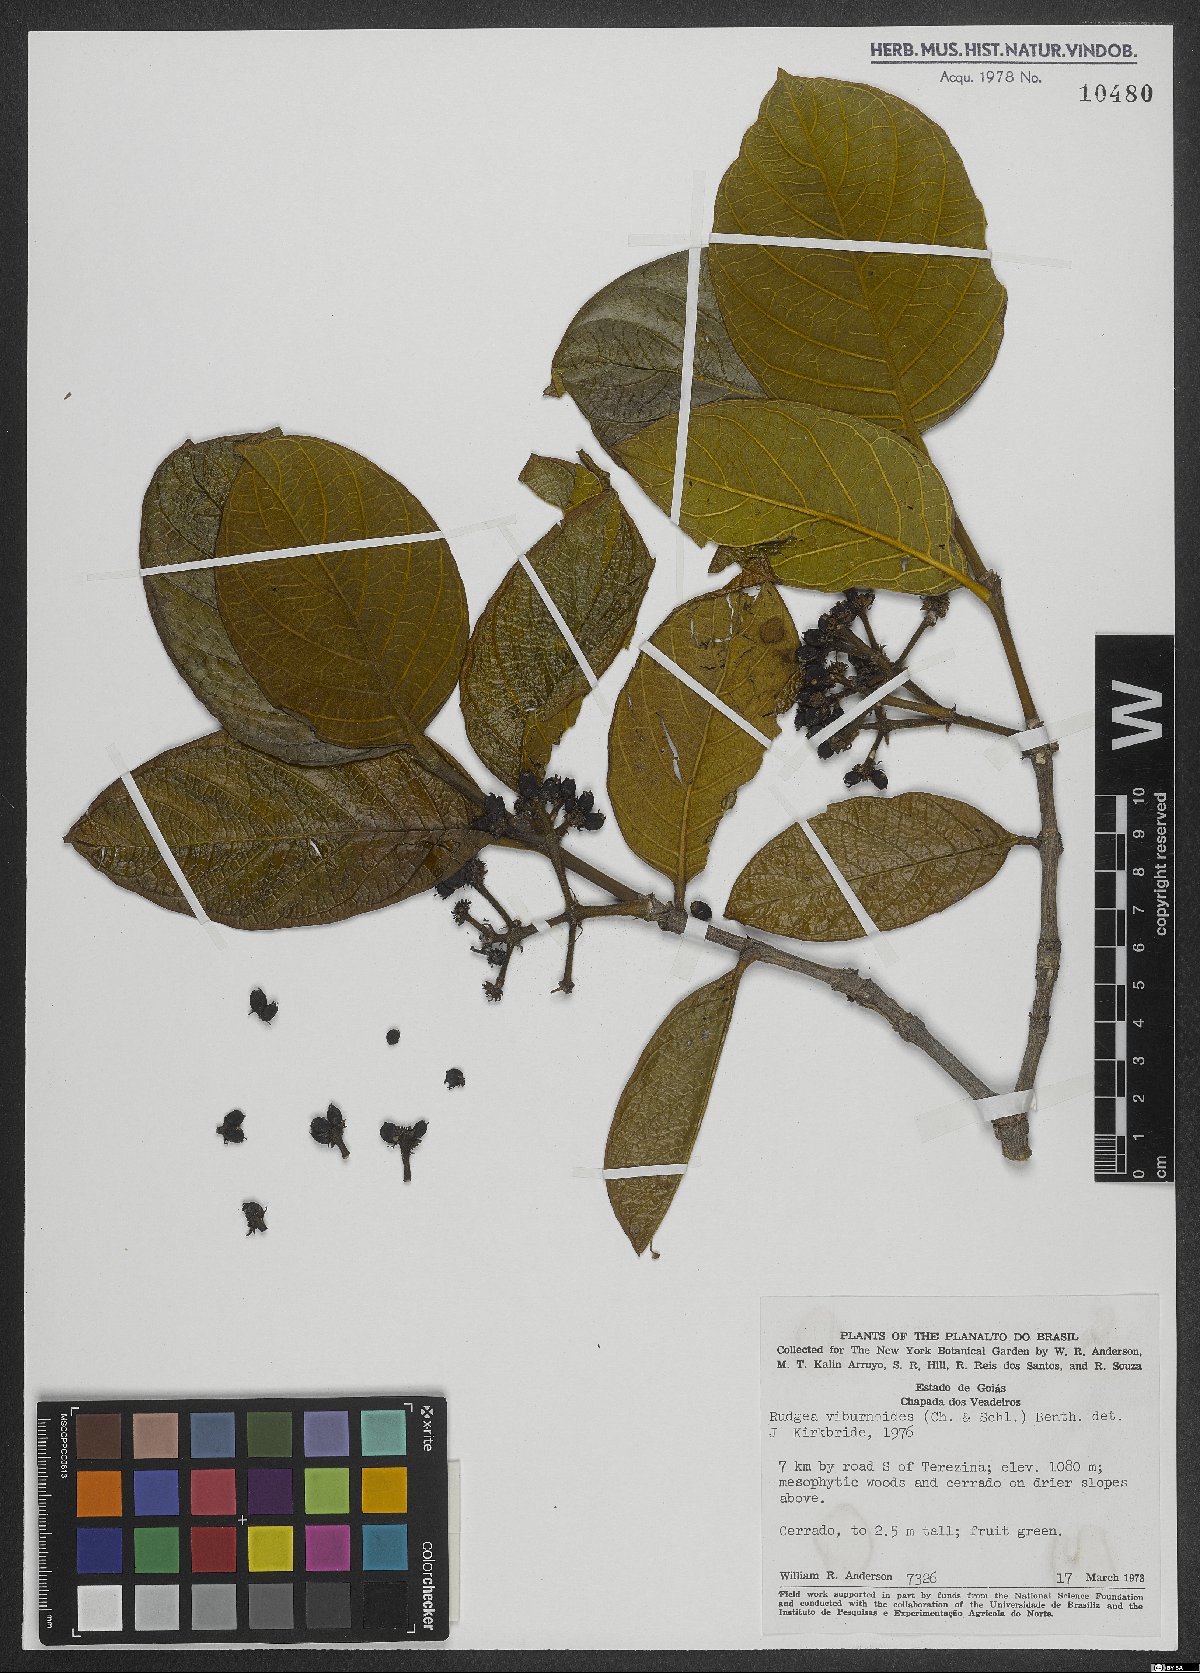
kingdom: Plantae
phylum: Tracheophyta
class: Magnoliopsida
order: Gentianales
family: Rubiaceae
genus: Rudgea
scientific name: Rudgea viburnoides
